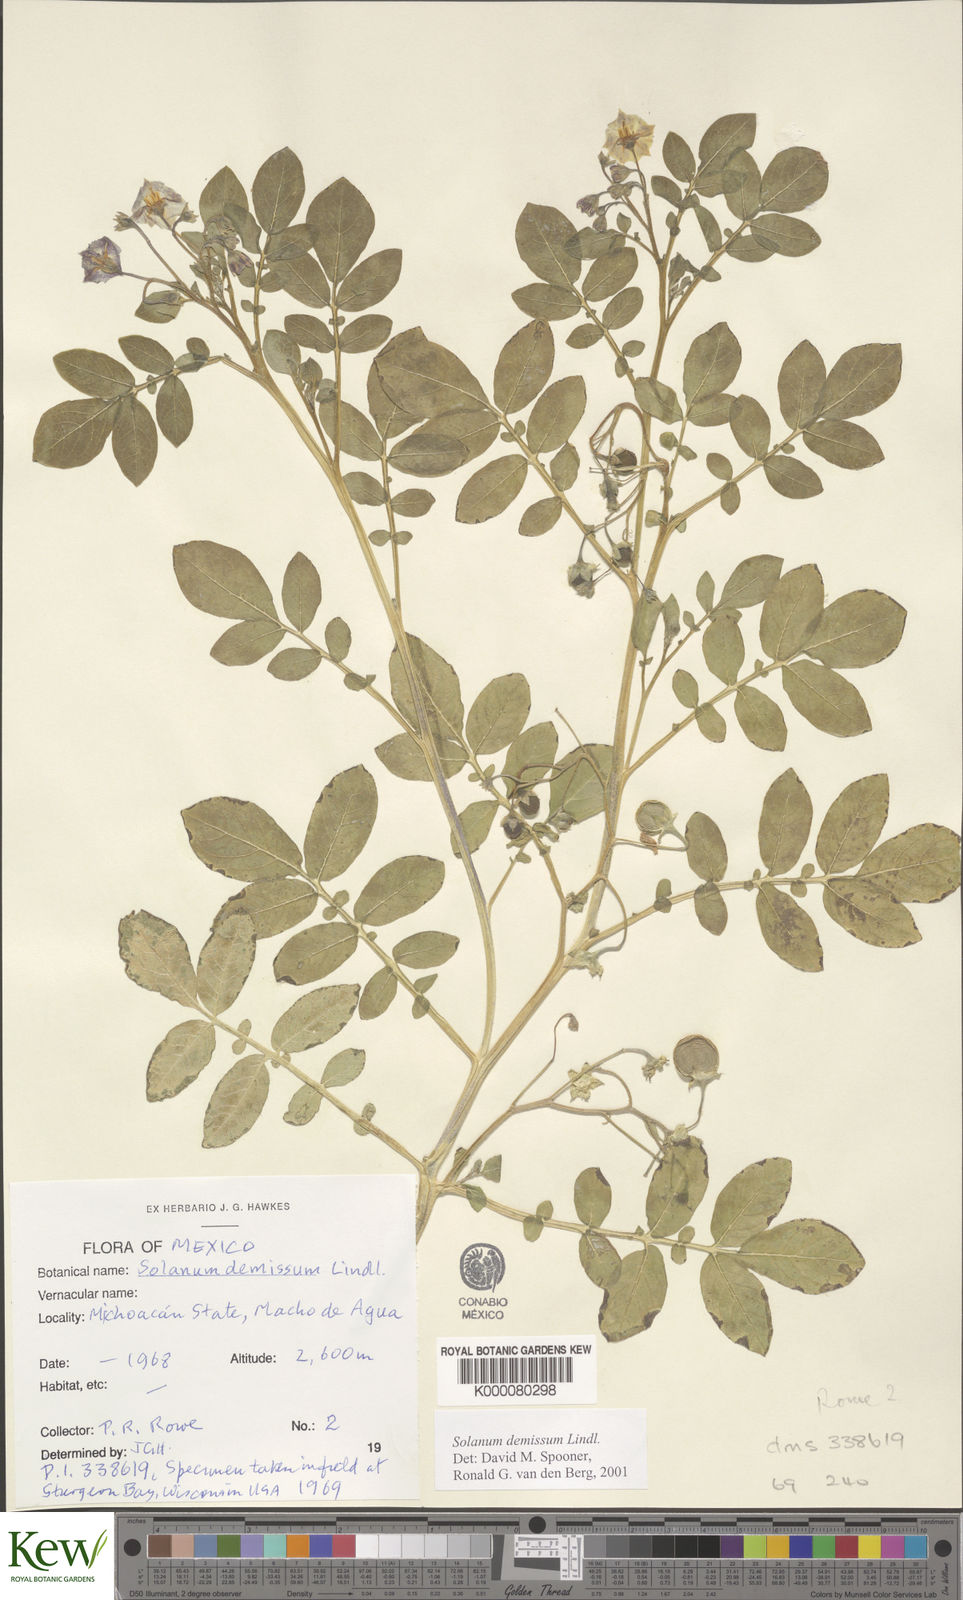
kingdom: Plantae
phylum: Tracheophyta
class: Magnoliopsida
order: Solanales
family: Solanaceae
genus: Solanum
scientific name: Solanum demissum
